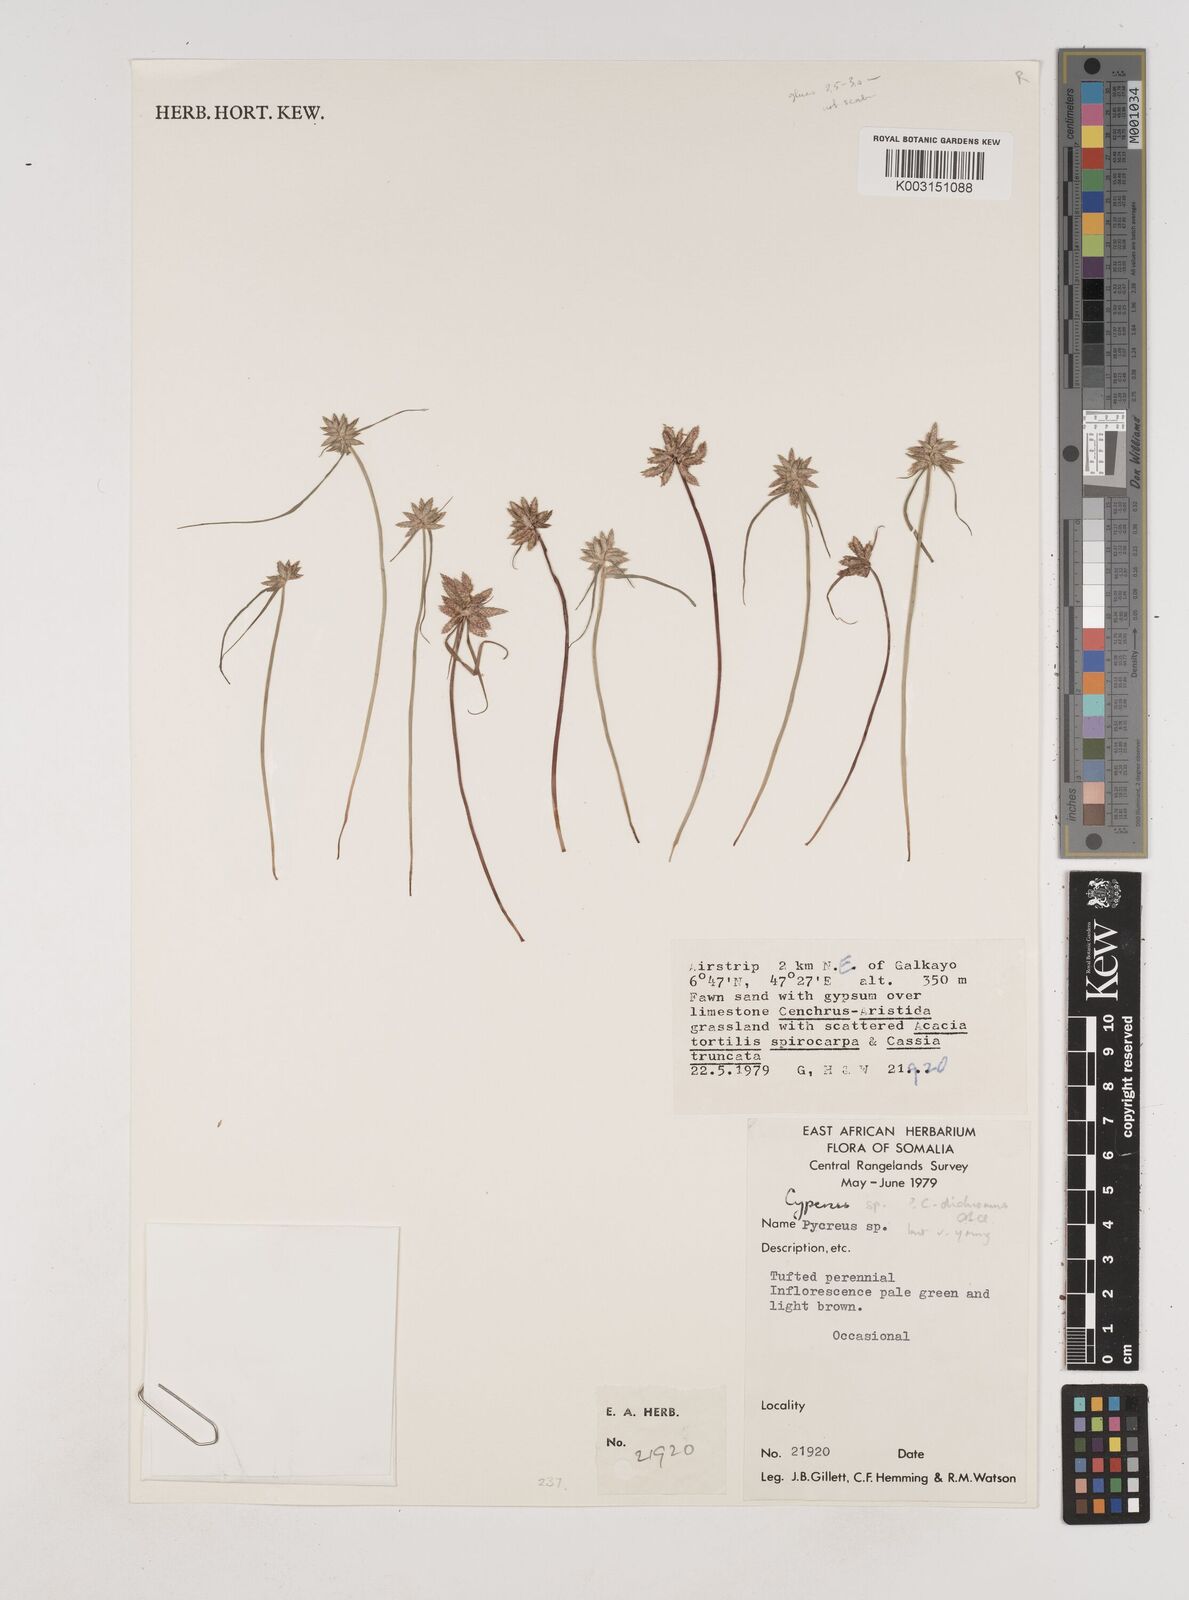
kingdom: Plantae
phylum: Tracheophyta
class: Liliopsida
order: Poales
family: Cyperaceae
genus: Cyperus
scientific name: Cyperus dichromus
